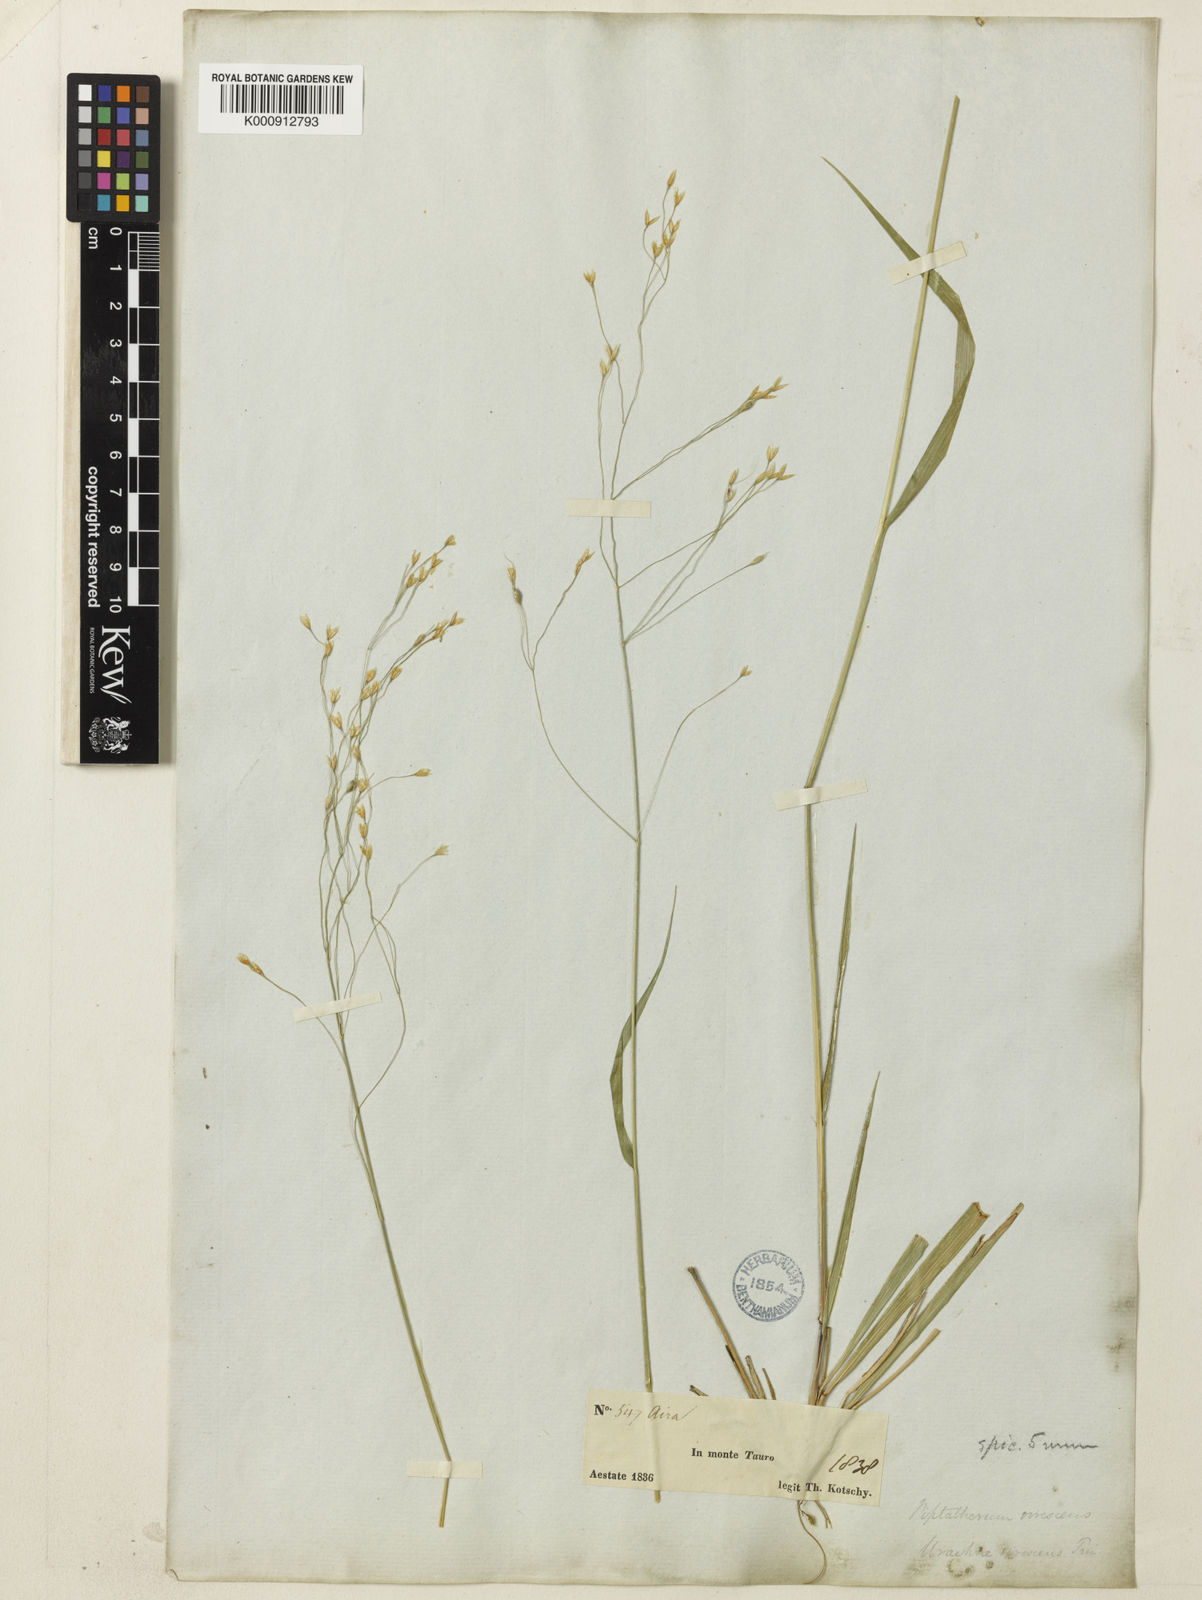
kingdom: Plantae
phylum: Tracheophyta
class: Liliopsida
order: Poales
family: Poaceae
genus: Achnatherum
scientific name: Achnatherum virescens
